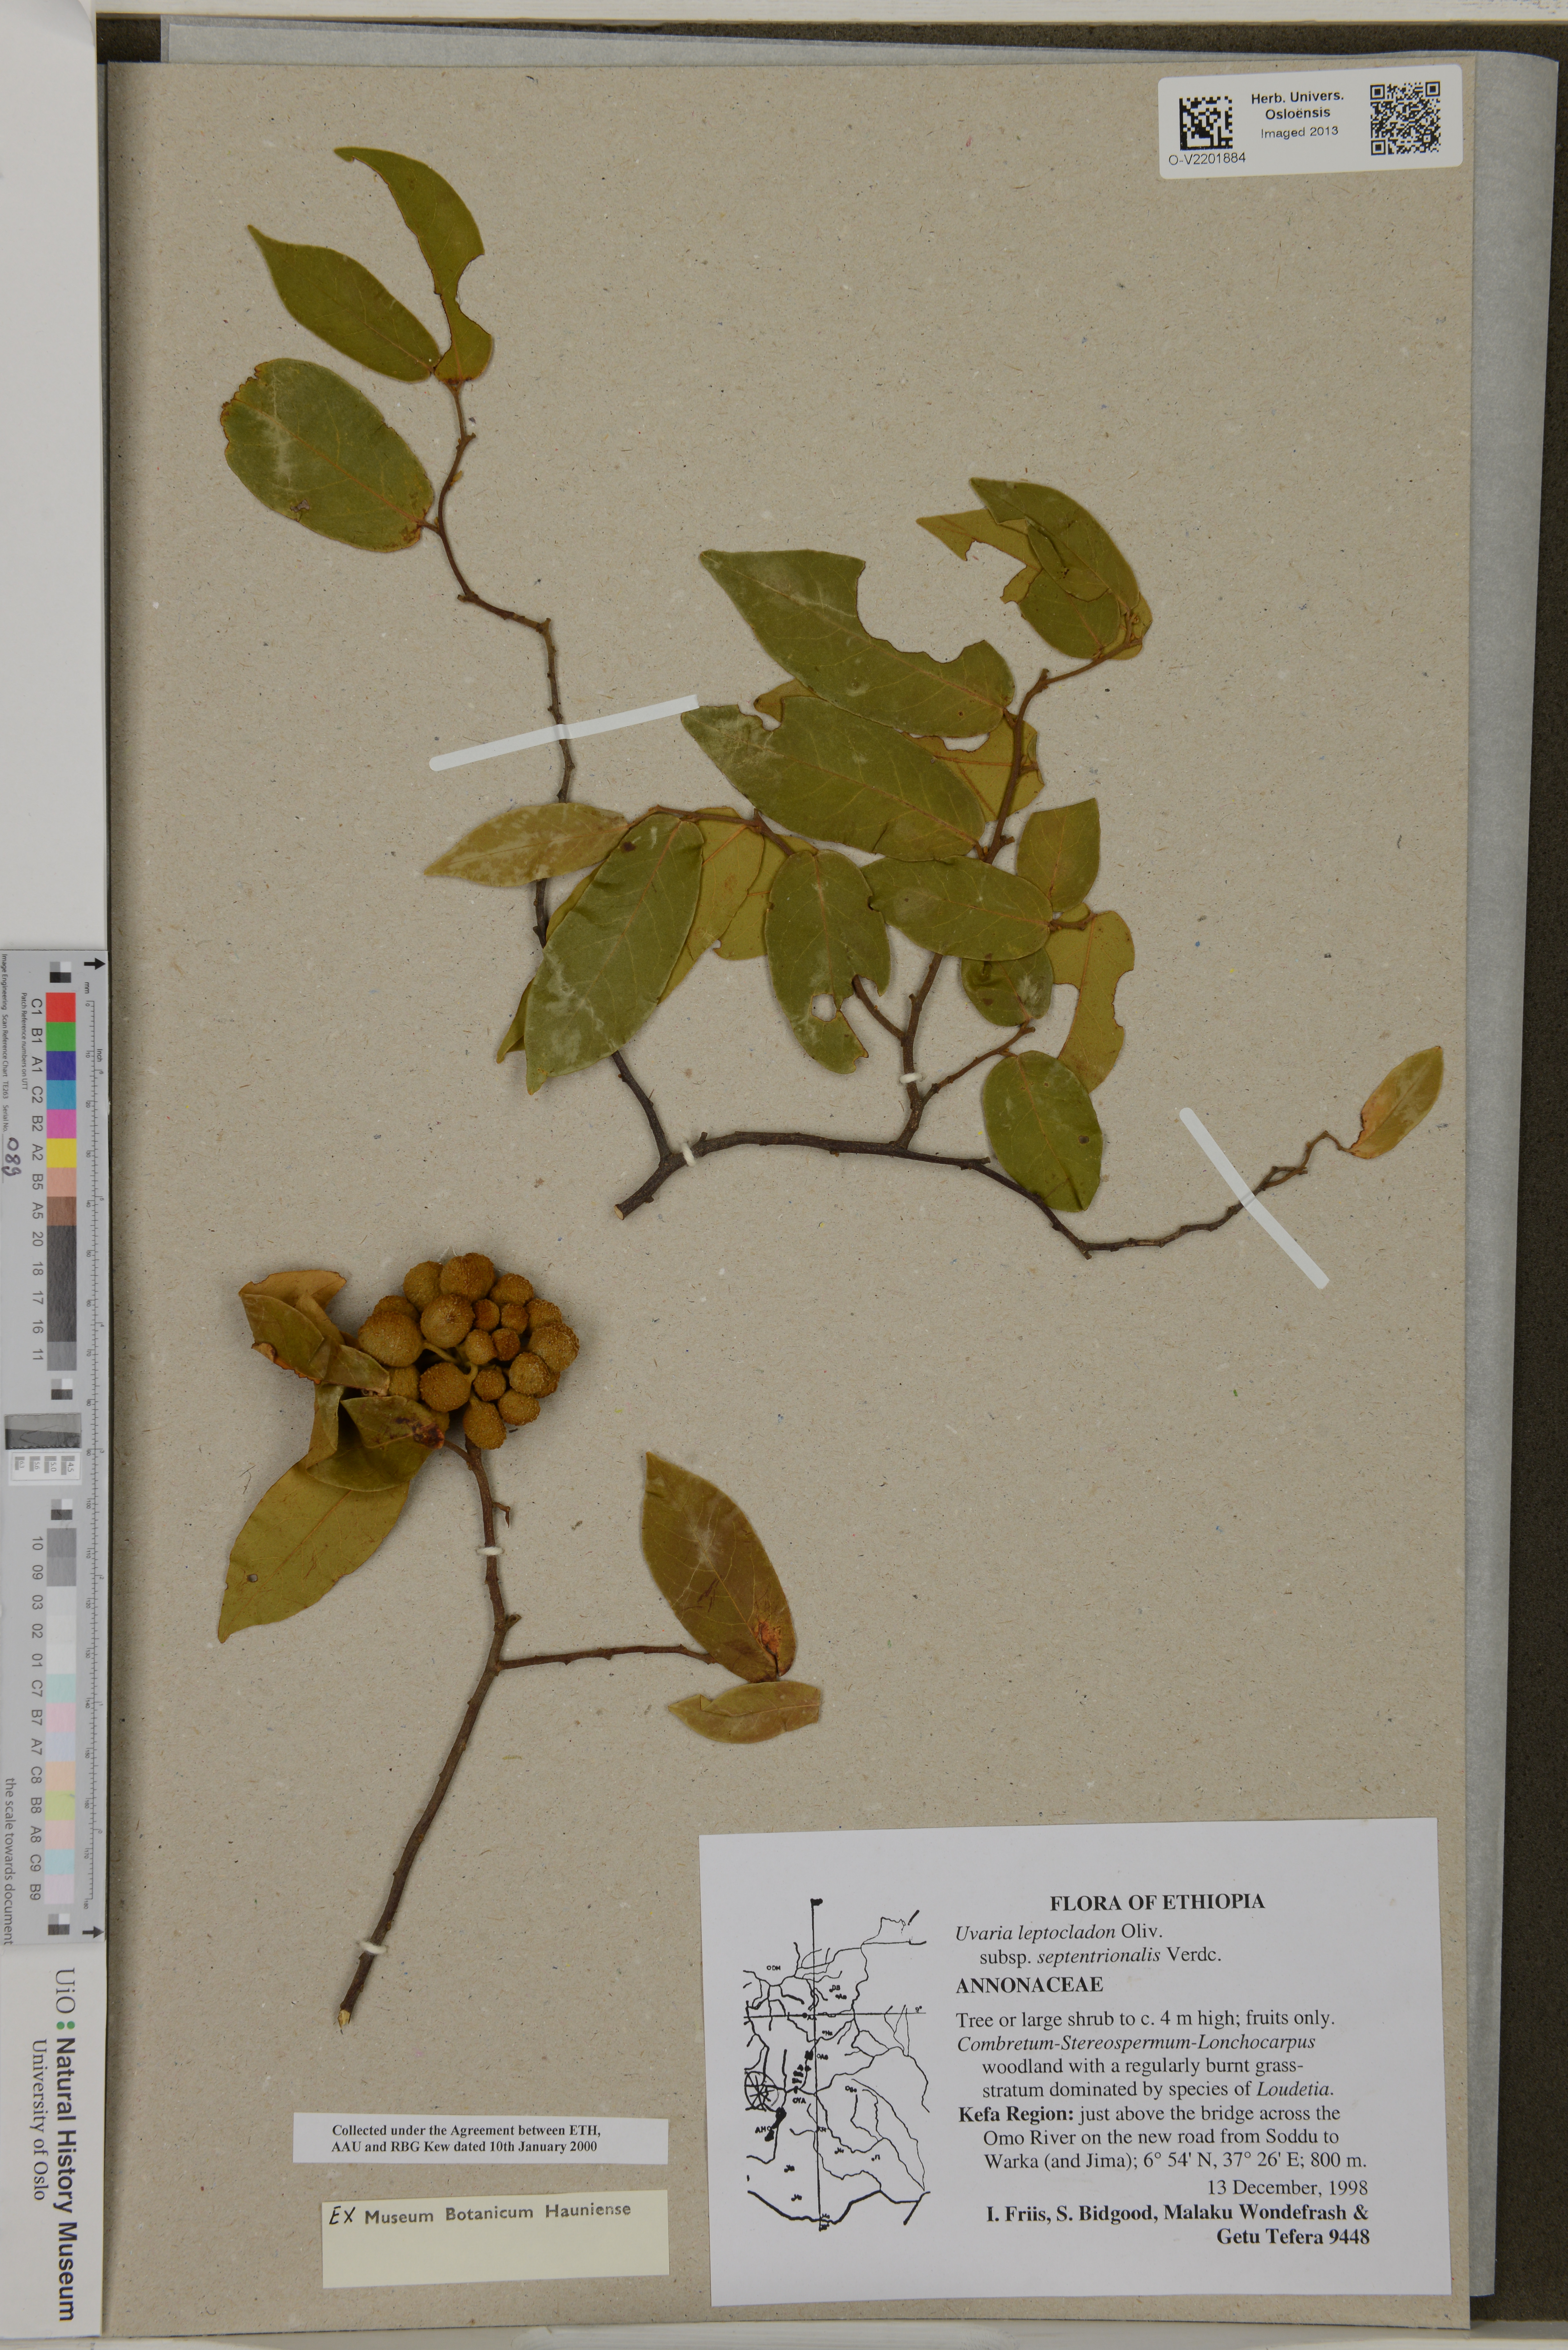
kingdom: Plantae
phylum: Tracheophyta
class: Magnoliopsida
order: Magnoliales
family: Annonaceae
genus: Uvaria
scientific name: Uvaria leptocladon
